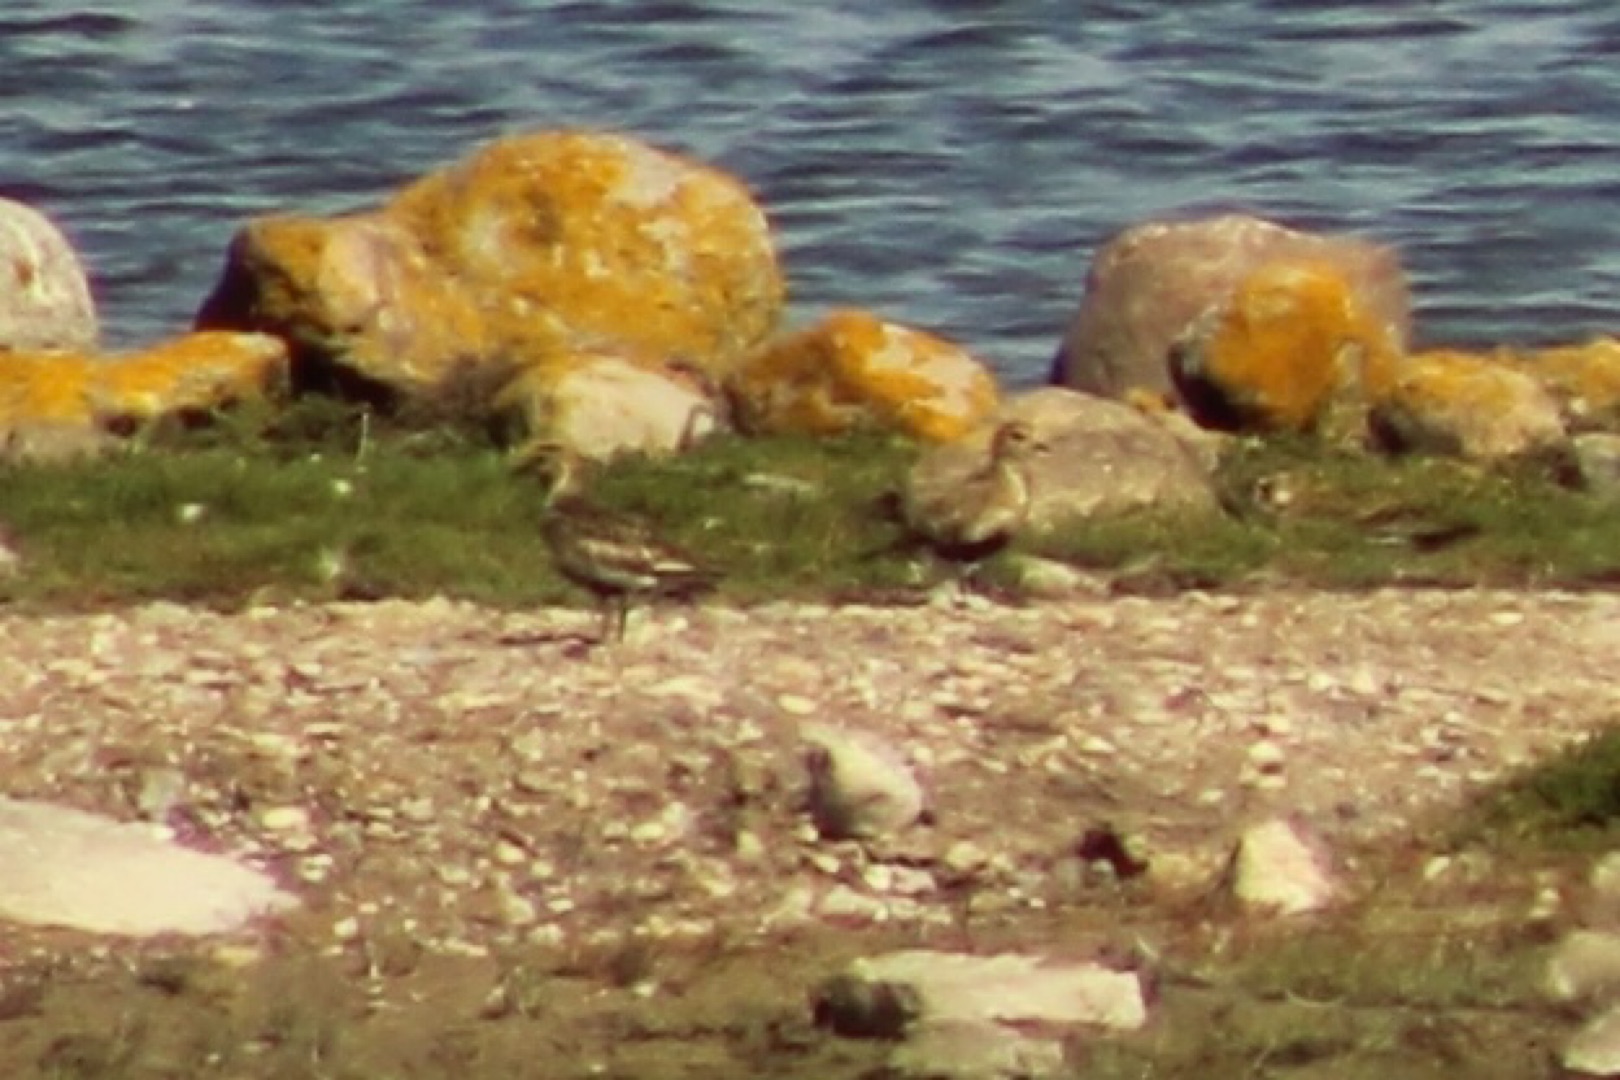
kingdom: Animalia
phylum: Chordata
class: Aves
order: Charadriiformes
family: Charadriidae
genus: Pluvialis
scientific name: Pluvialis apricaria
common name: Hjejle
